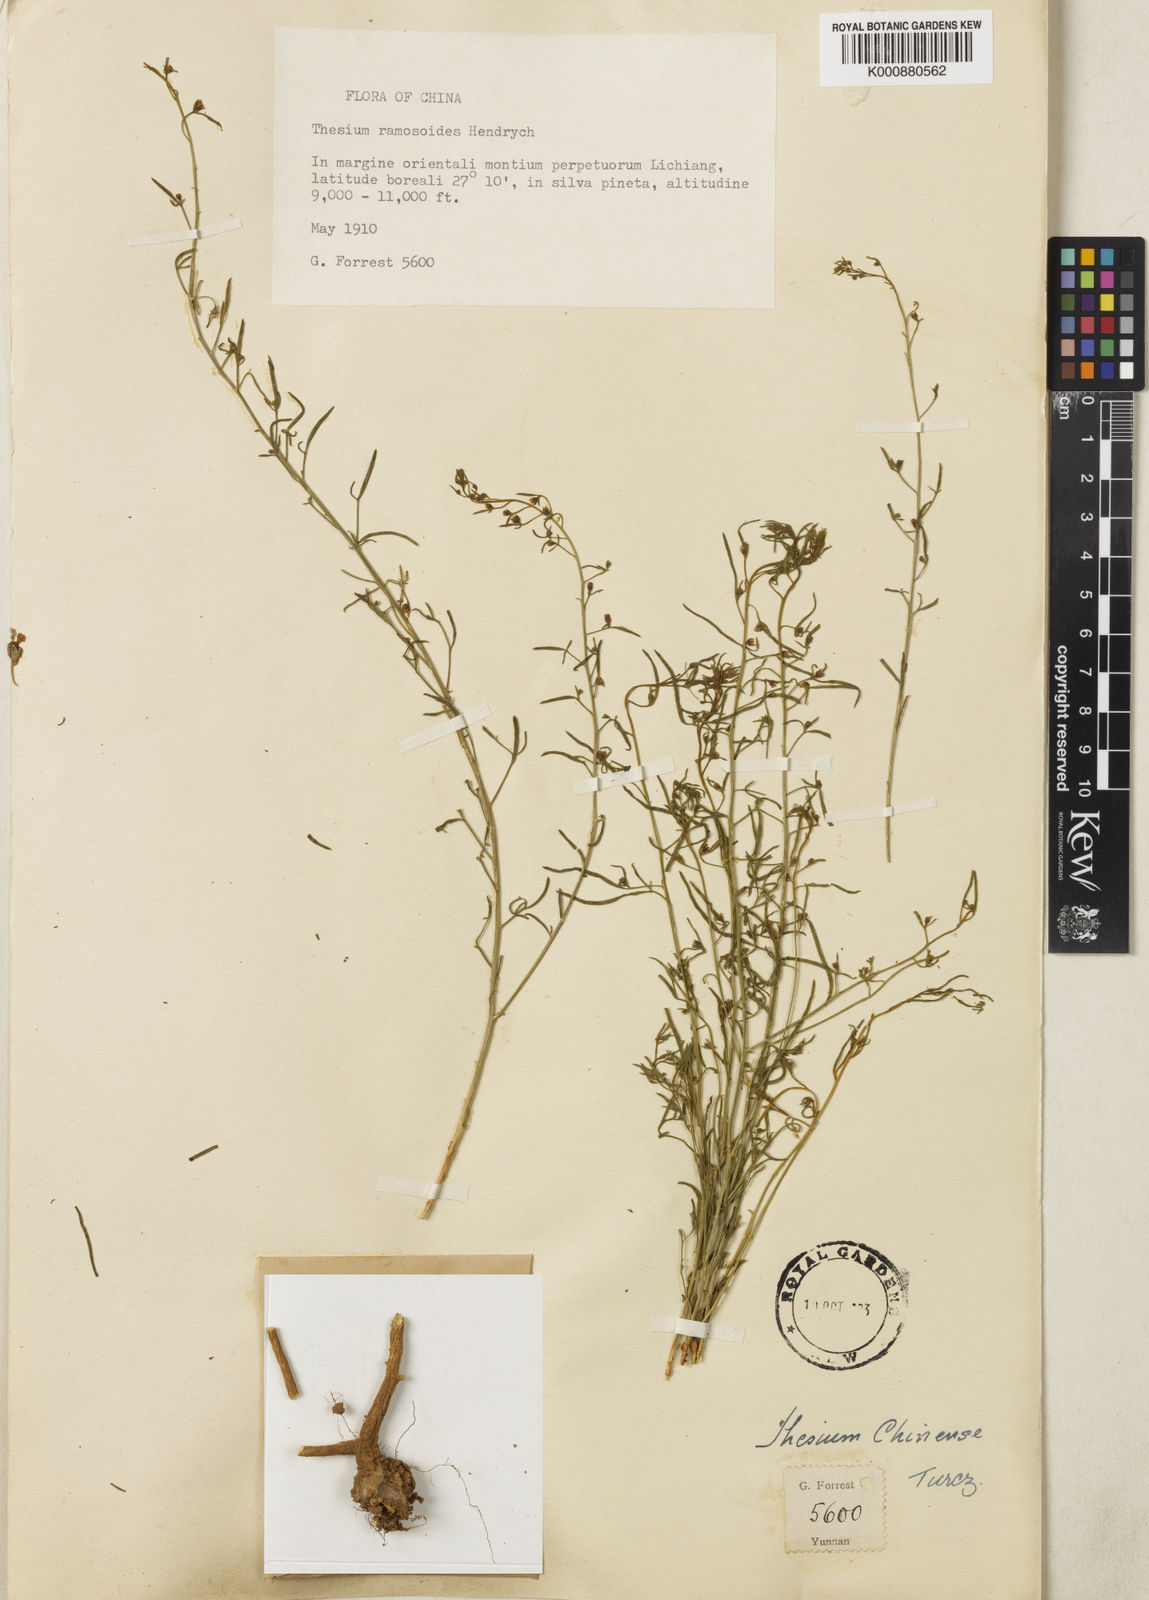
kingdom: Plantae
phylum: Tracheophyta
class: Magnoliopsida
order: Santalales
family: Thesiaceae
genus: Thesium
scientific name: Thesium ramosoides
